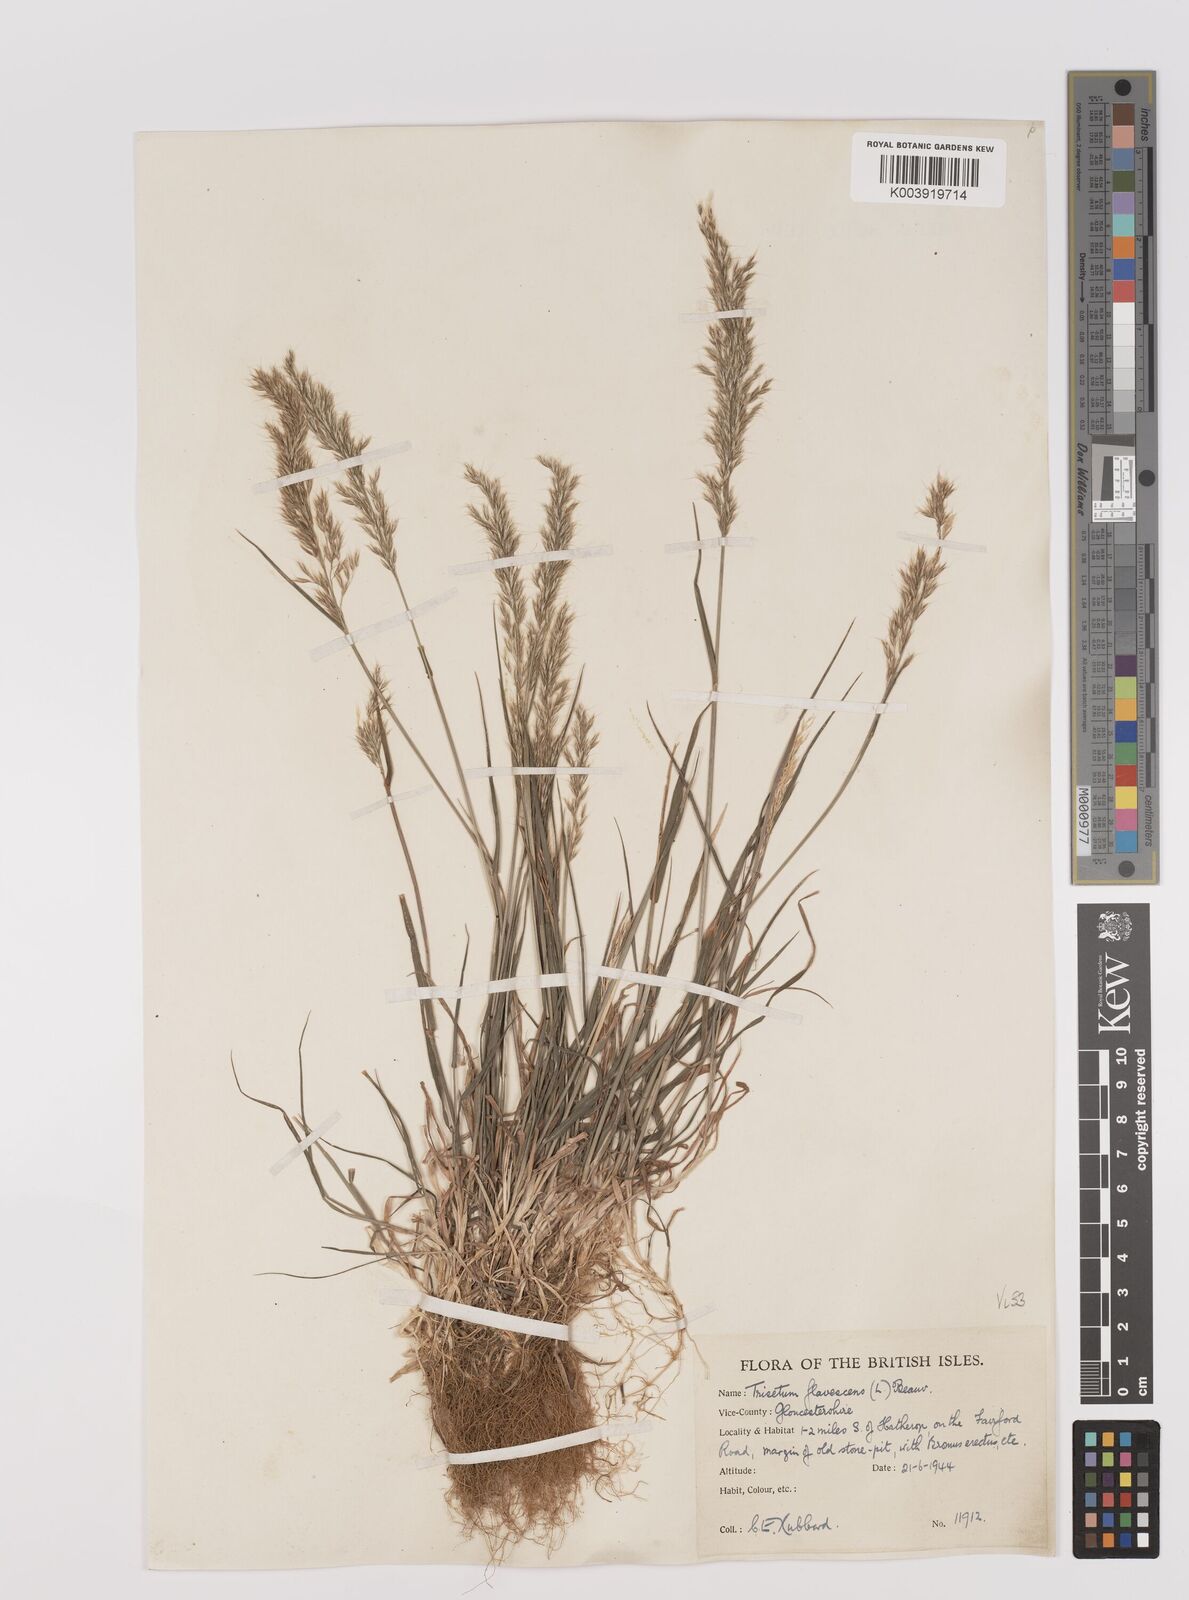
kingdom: Plantae
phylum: Tracheophyta
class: Liliopsida
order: Poales
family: Poaceae
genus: Trisetum
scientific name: Trisetum flavescens
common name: Yellow oat-grass
